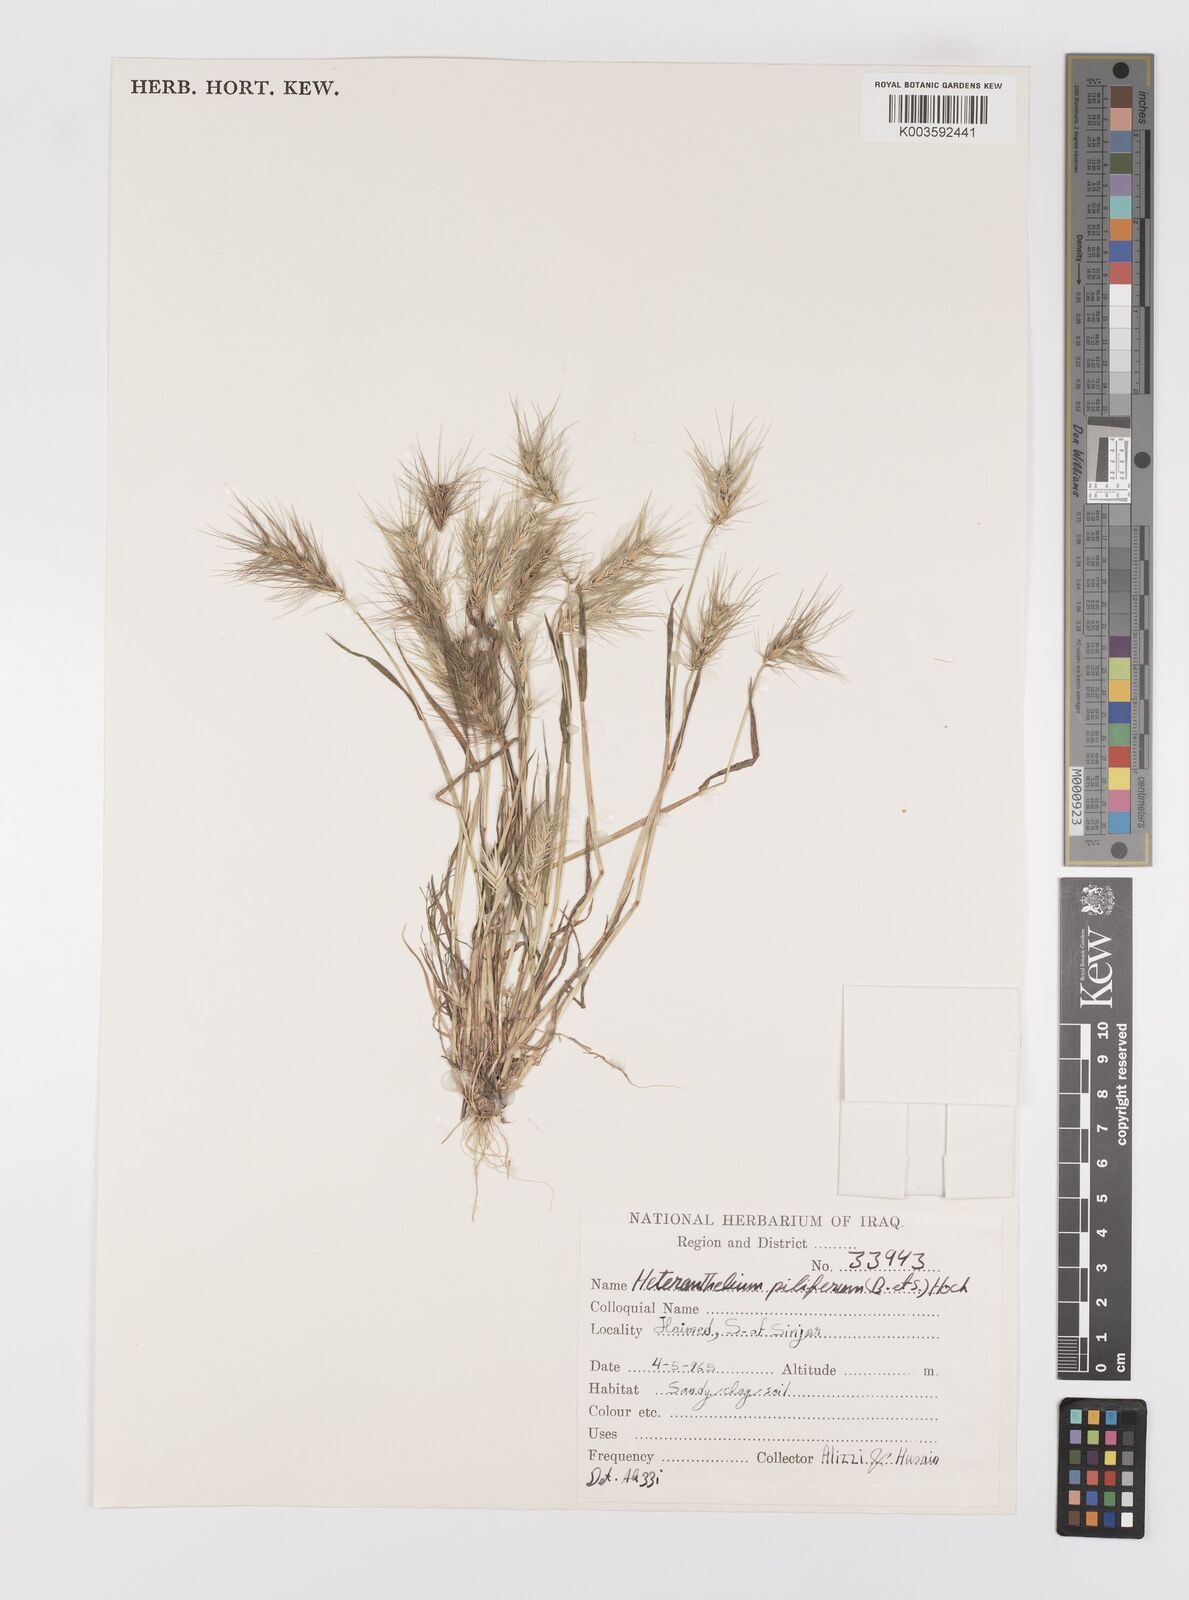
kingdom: Plantae
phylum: Tracheophyta
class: Liliopsida
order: Poales
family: Poaceae
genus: Heteranthelium
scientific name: Heteranthelium piliferum
